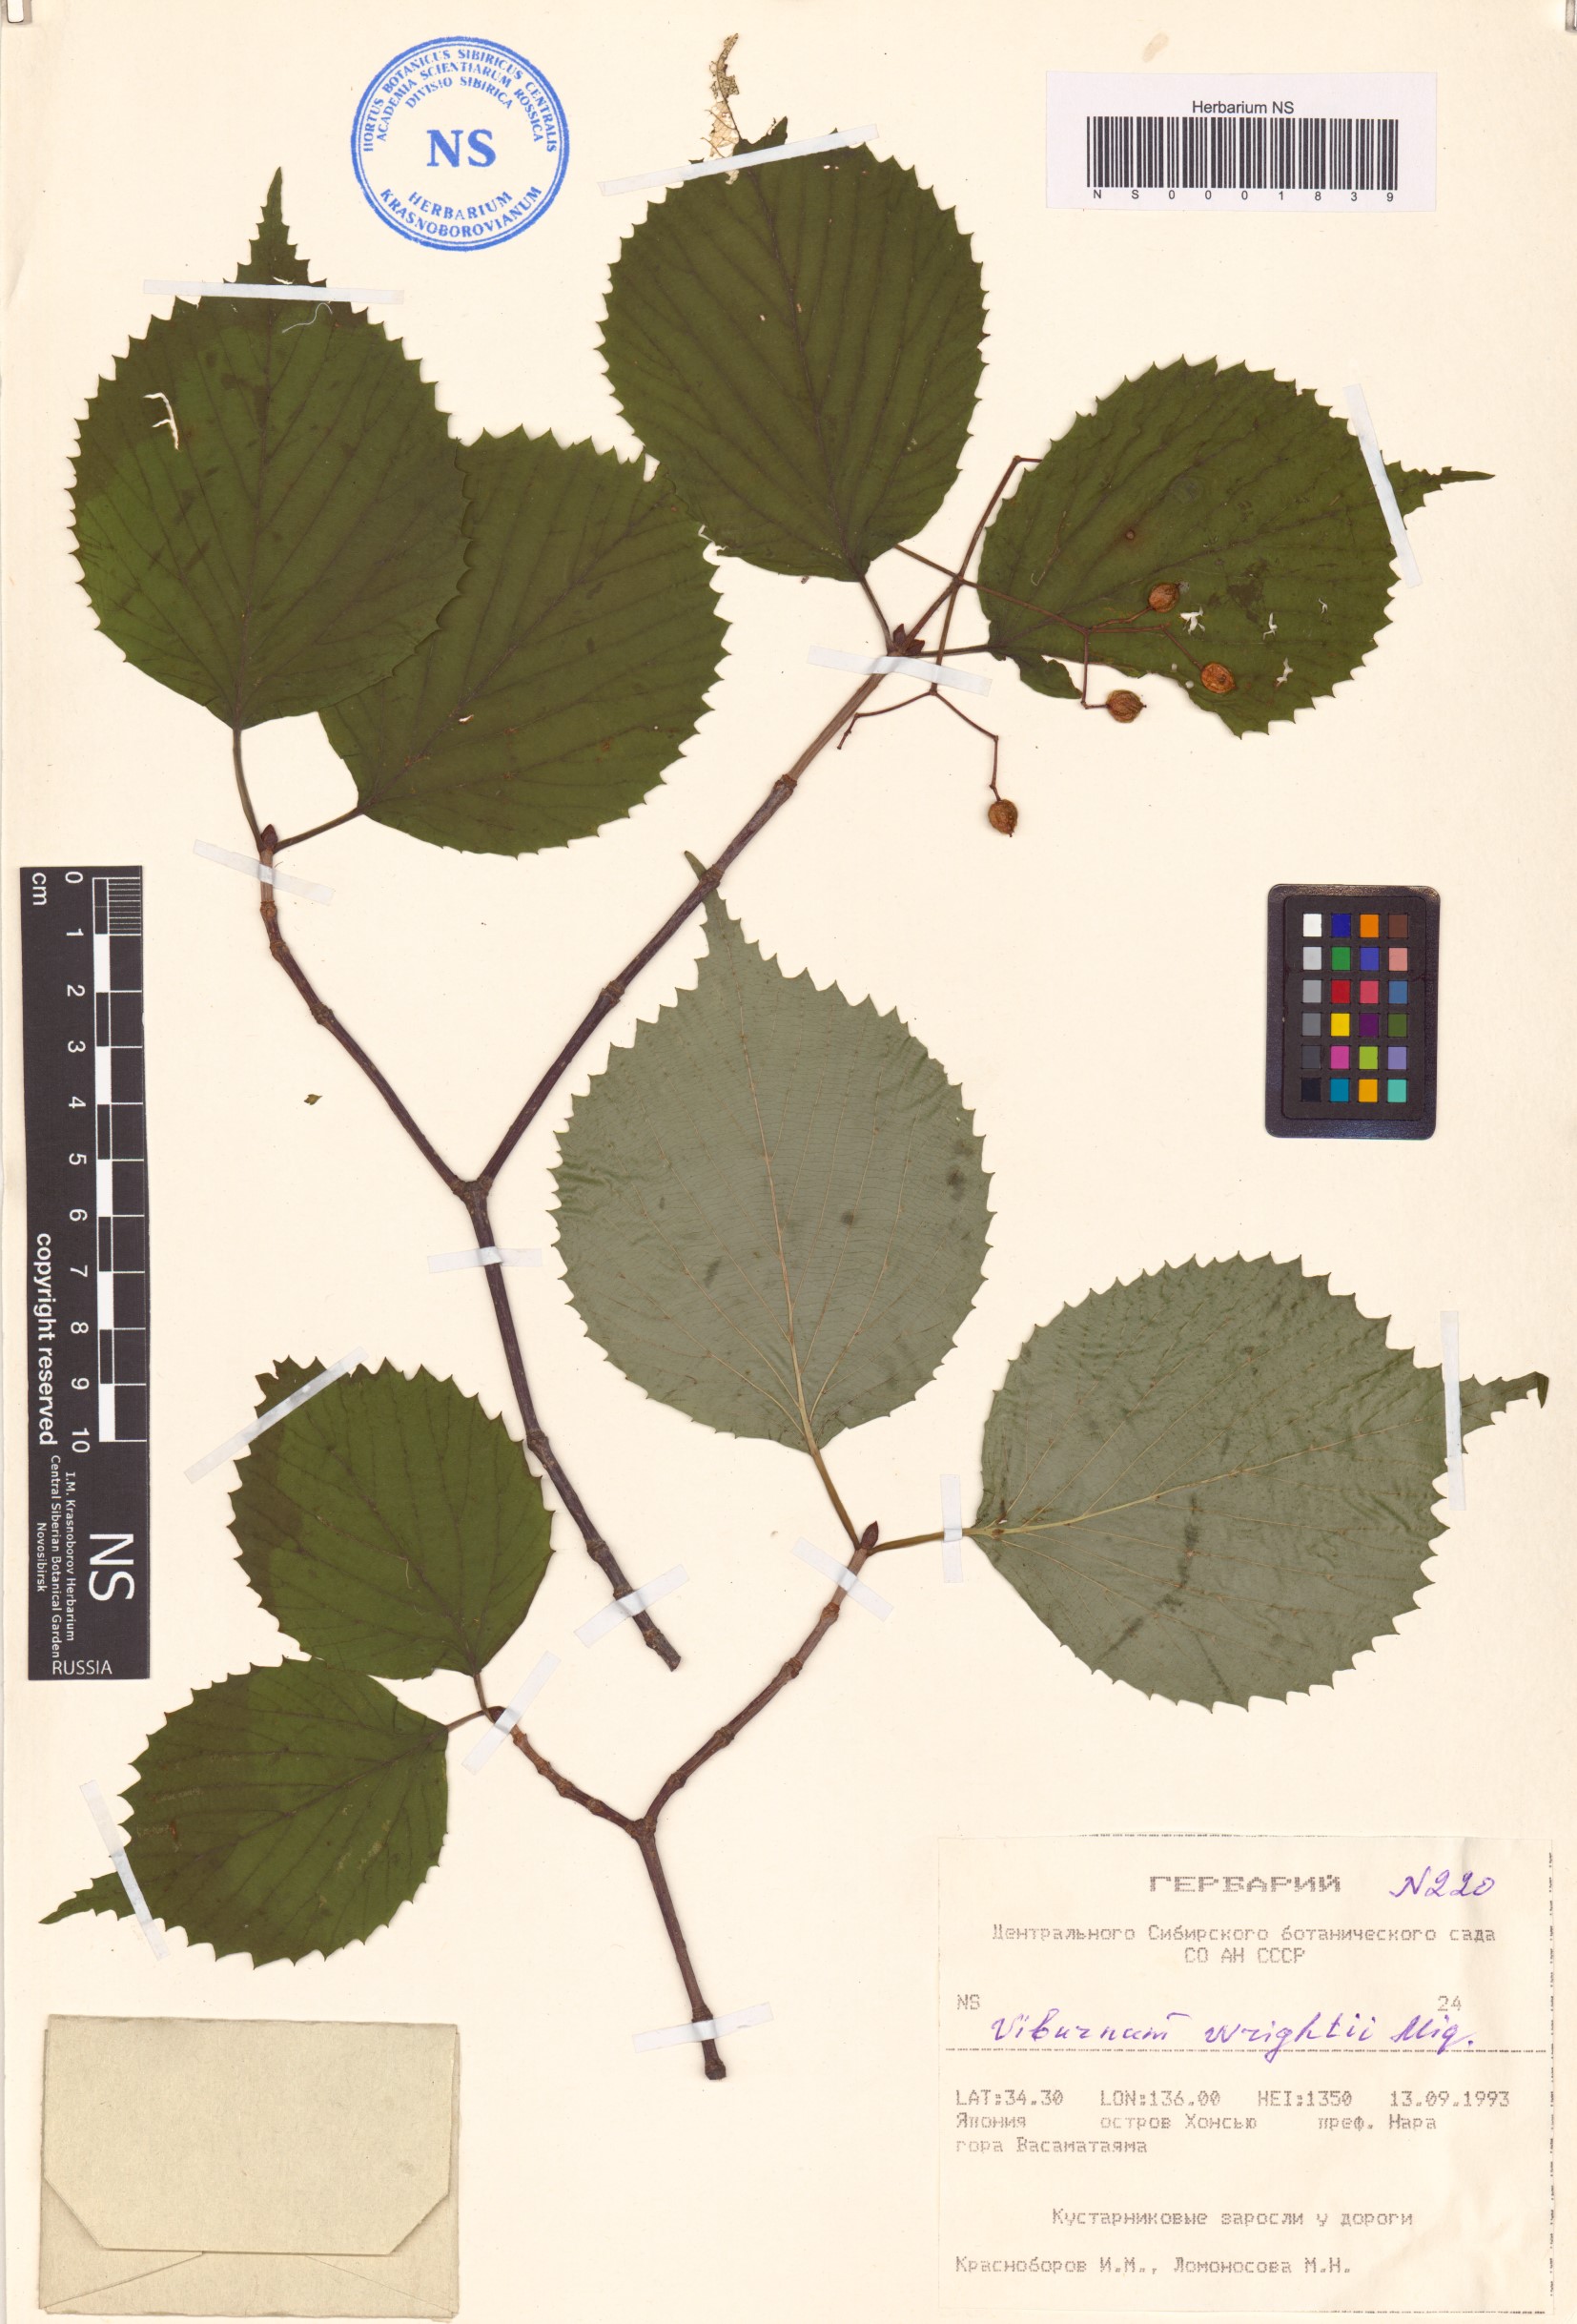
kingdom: Plantae
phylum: Tracheophyta
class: Magnoliopsida
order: Dipsacales
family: Viburnaceae
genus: Viburnum
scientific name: Viburnum wrightii
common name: Wright's viburnum
